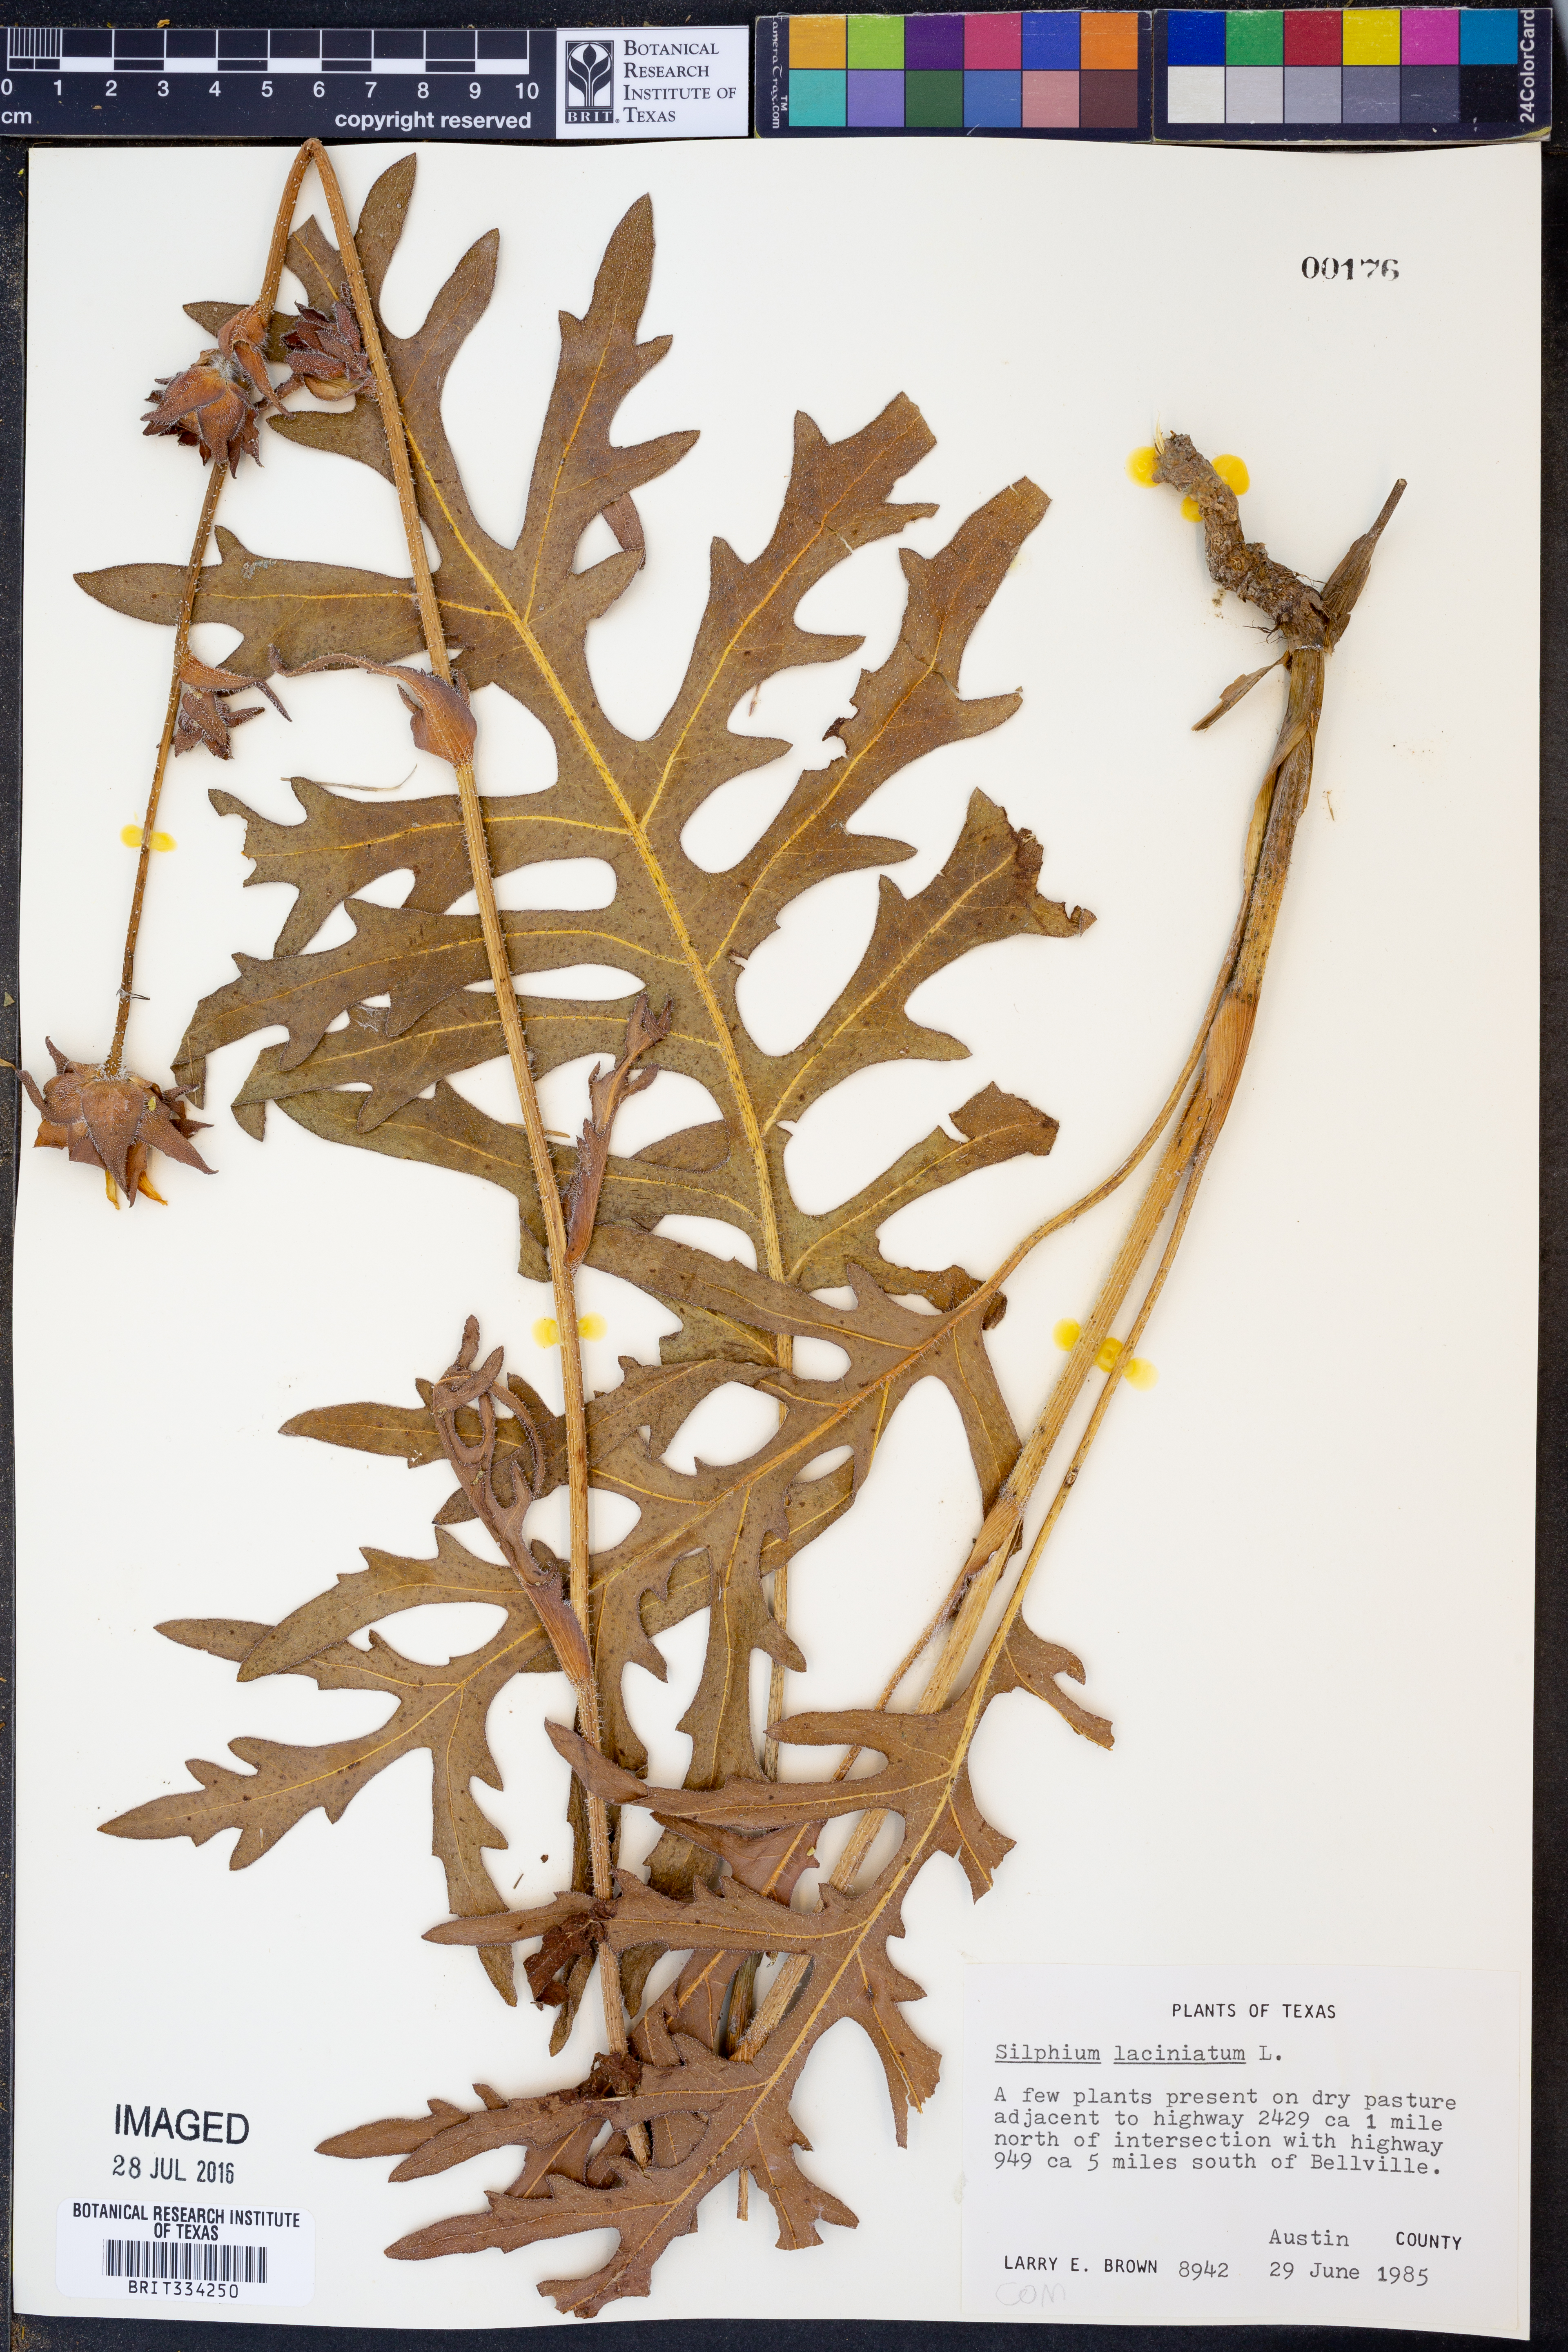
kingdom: Plantae
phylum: Tracheophyta
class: Magnoliopsida
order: Asterales
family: Asteraceae
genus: Silphium
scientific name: Silphium laciniatum
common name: Polarplant
